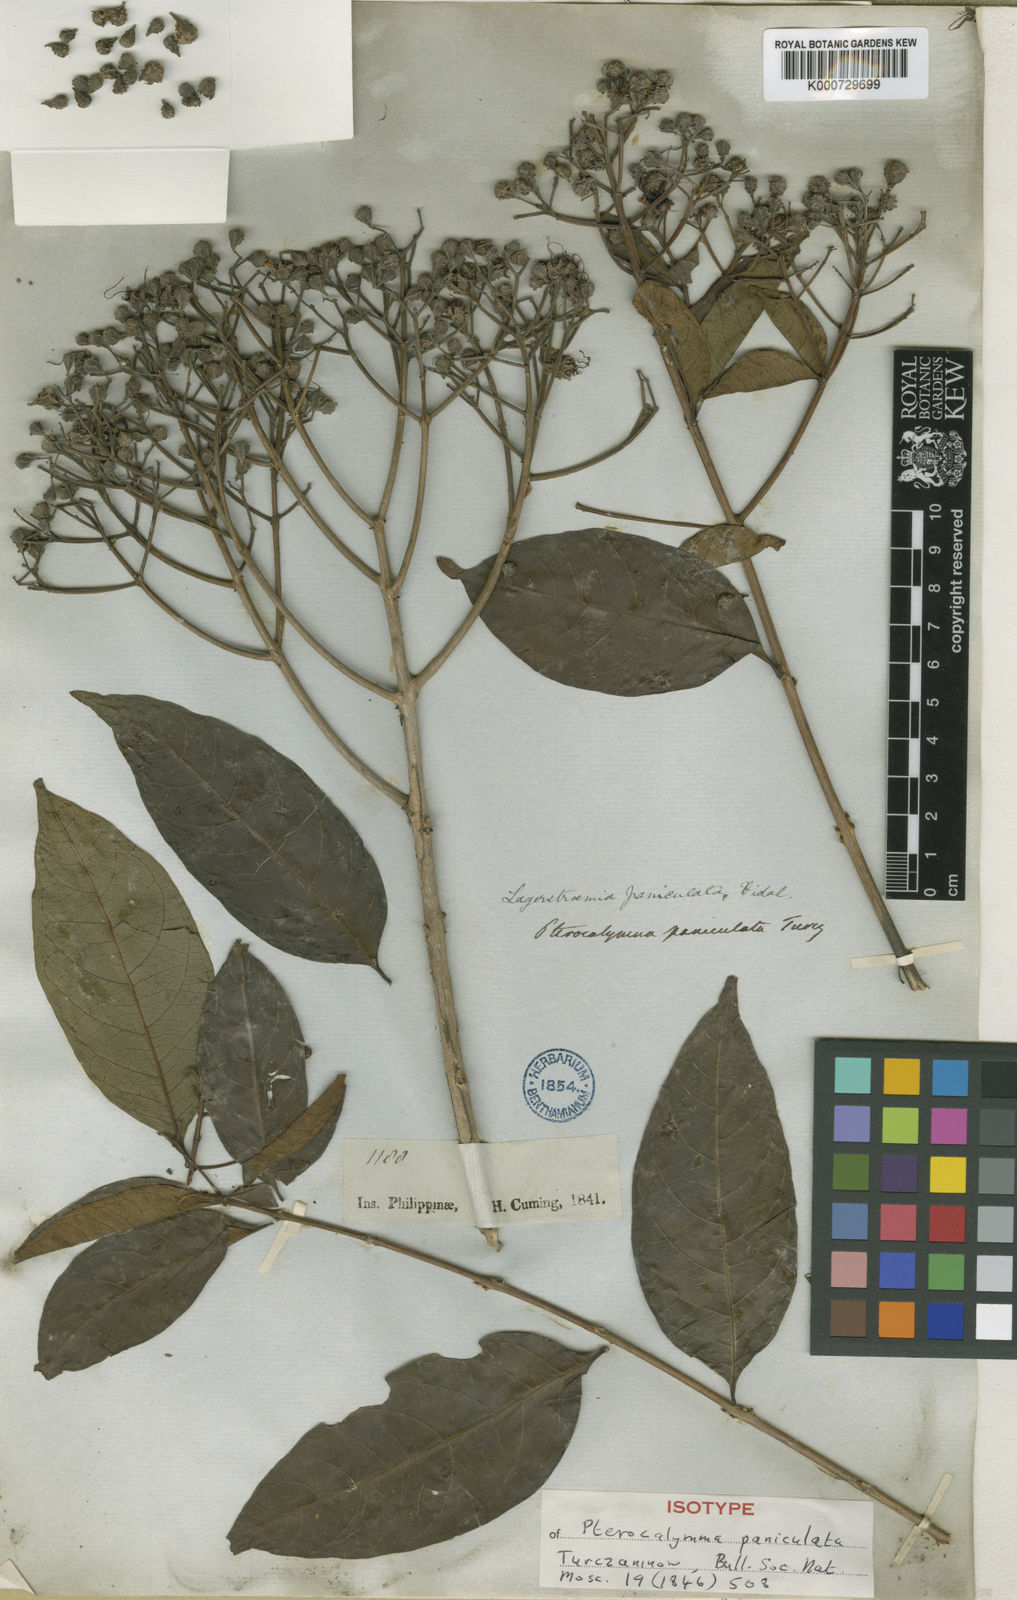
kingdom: Plantae
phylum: Tracheophyta
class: Magnoliopsida
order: Myrtales
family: Lythraceae
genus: Lagerstroemia
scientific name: Lagerstroemia paniculata
